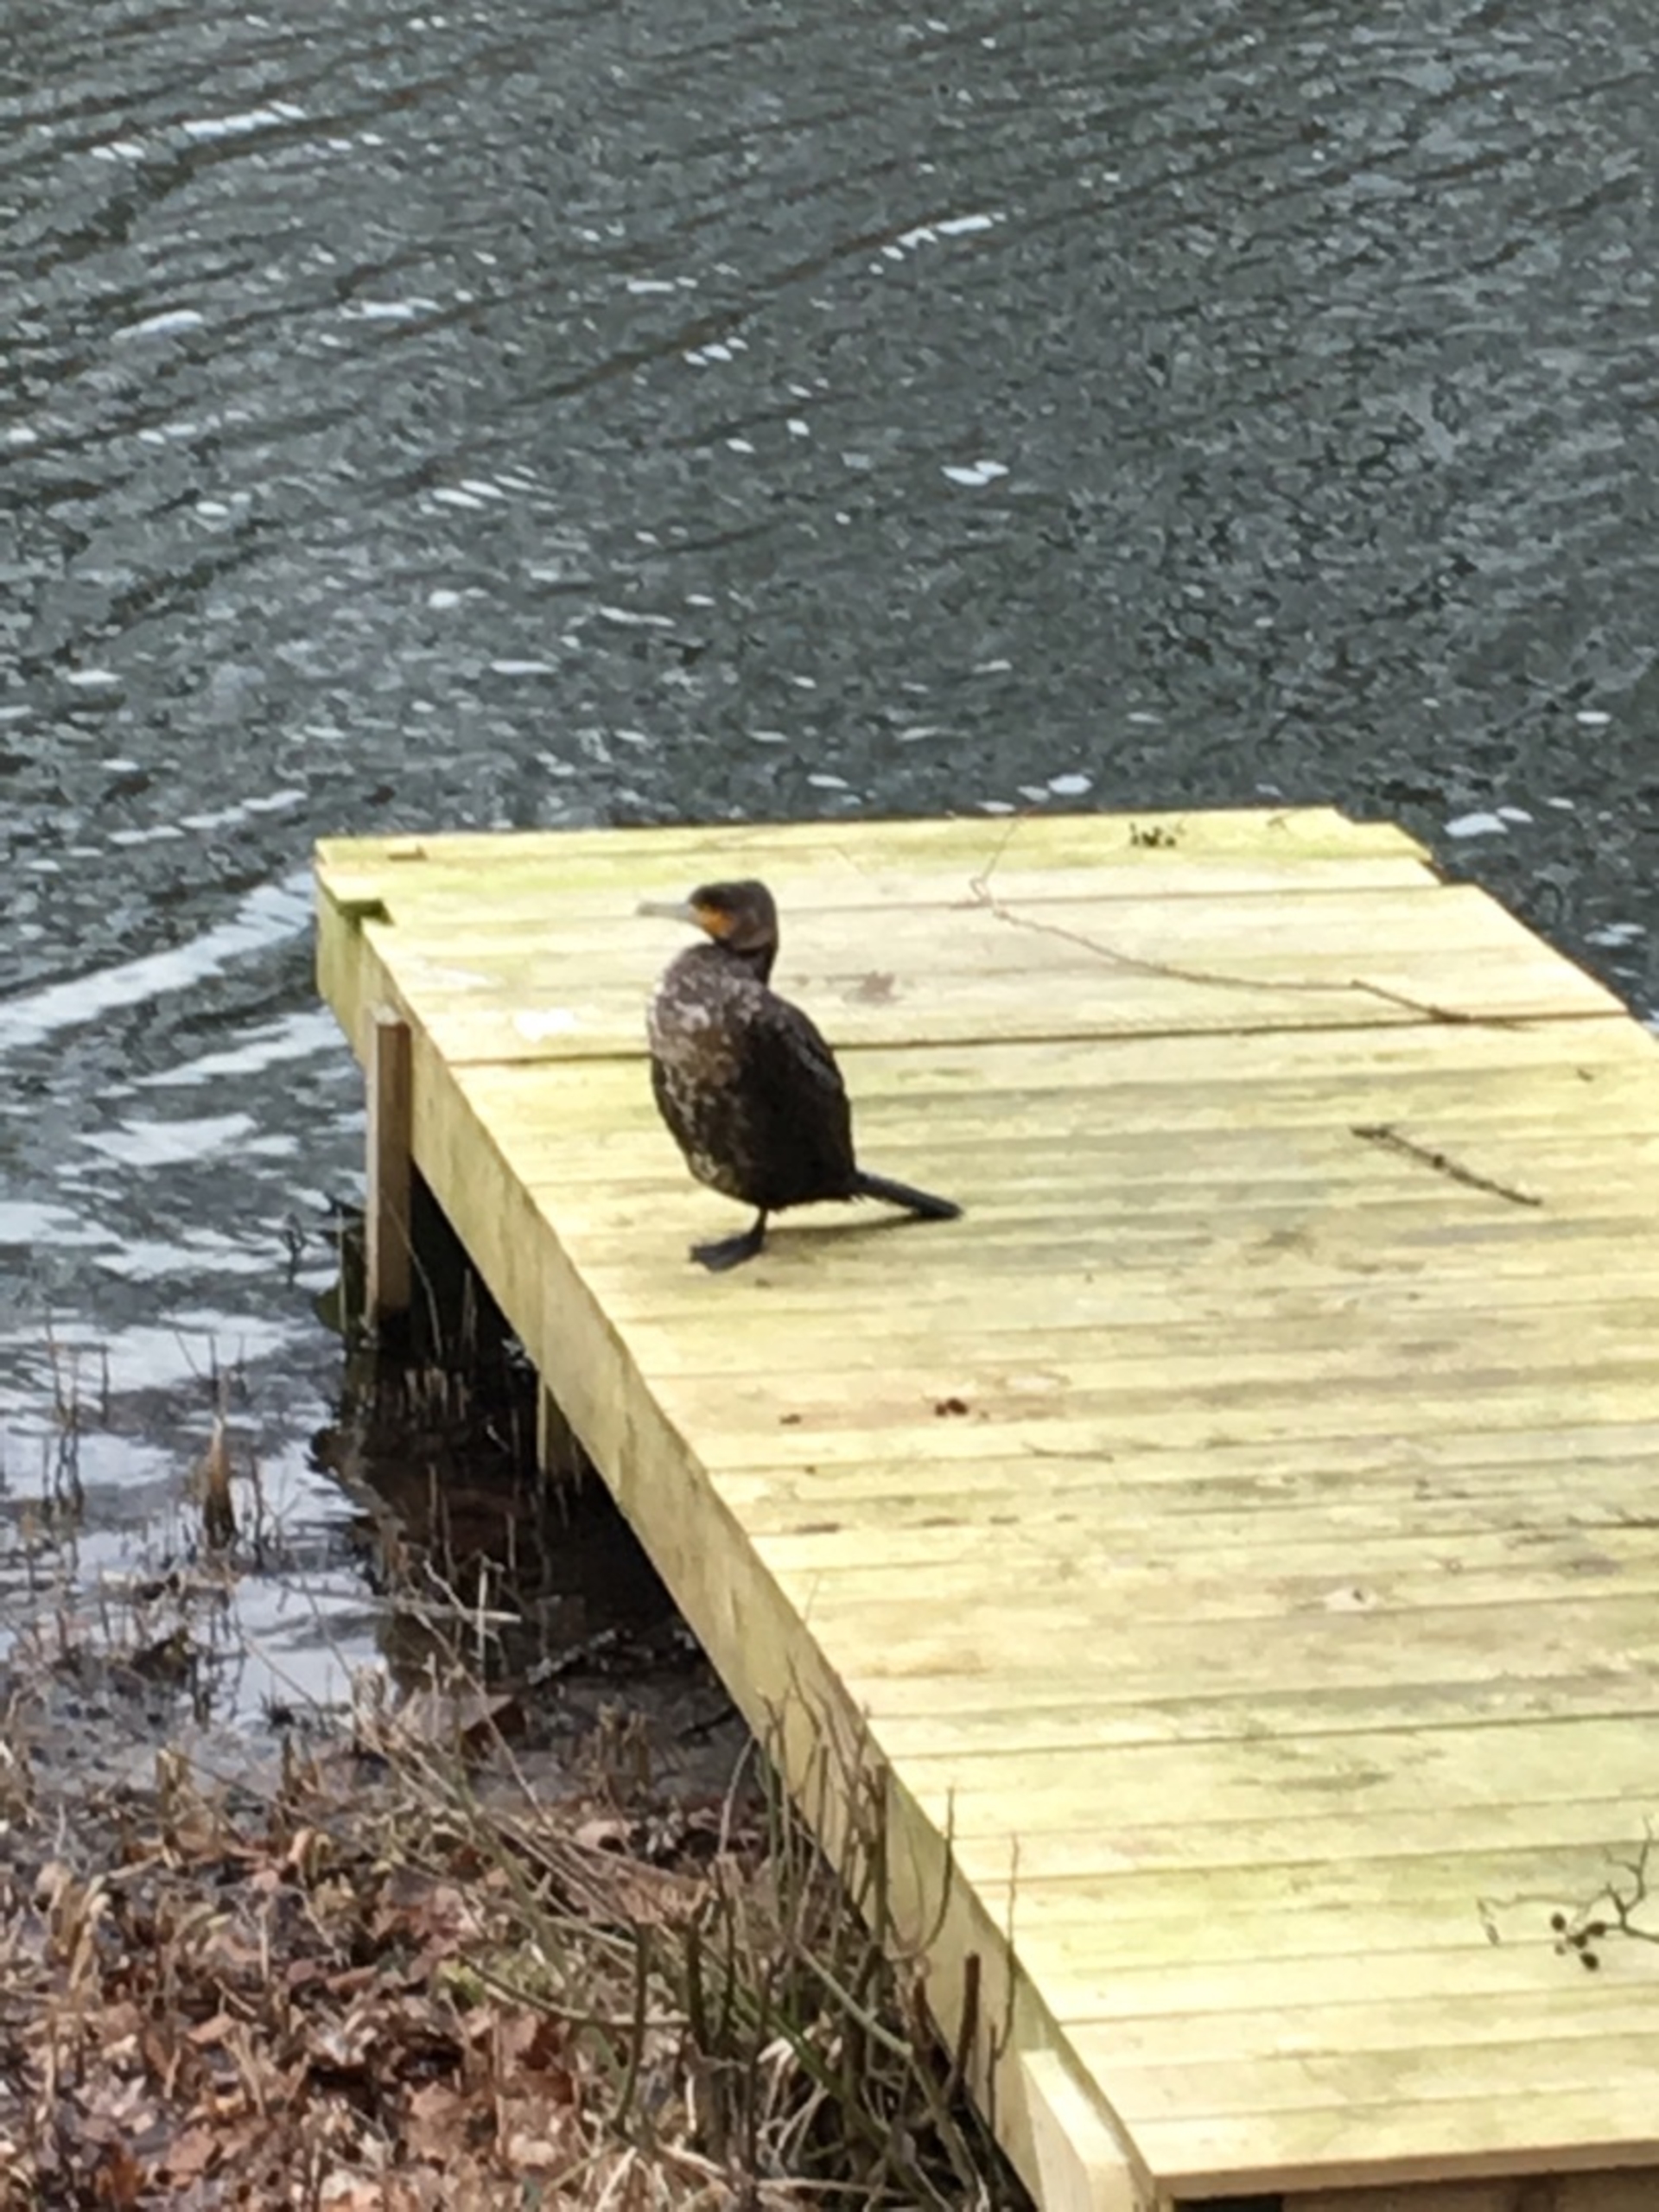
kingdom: Animalia
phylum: Chordata
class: Aves
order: Suliformes
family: Phalacrocoracidae
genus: Phalacrocorax
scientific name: Phalacrocorax carbo
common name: Skarv
